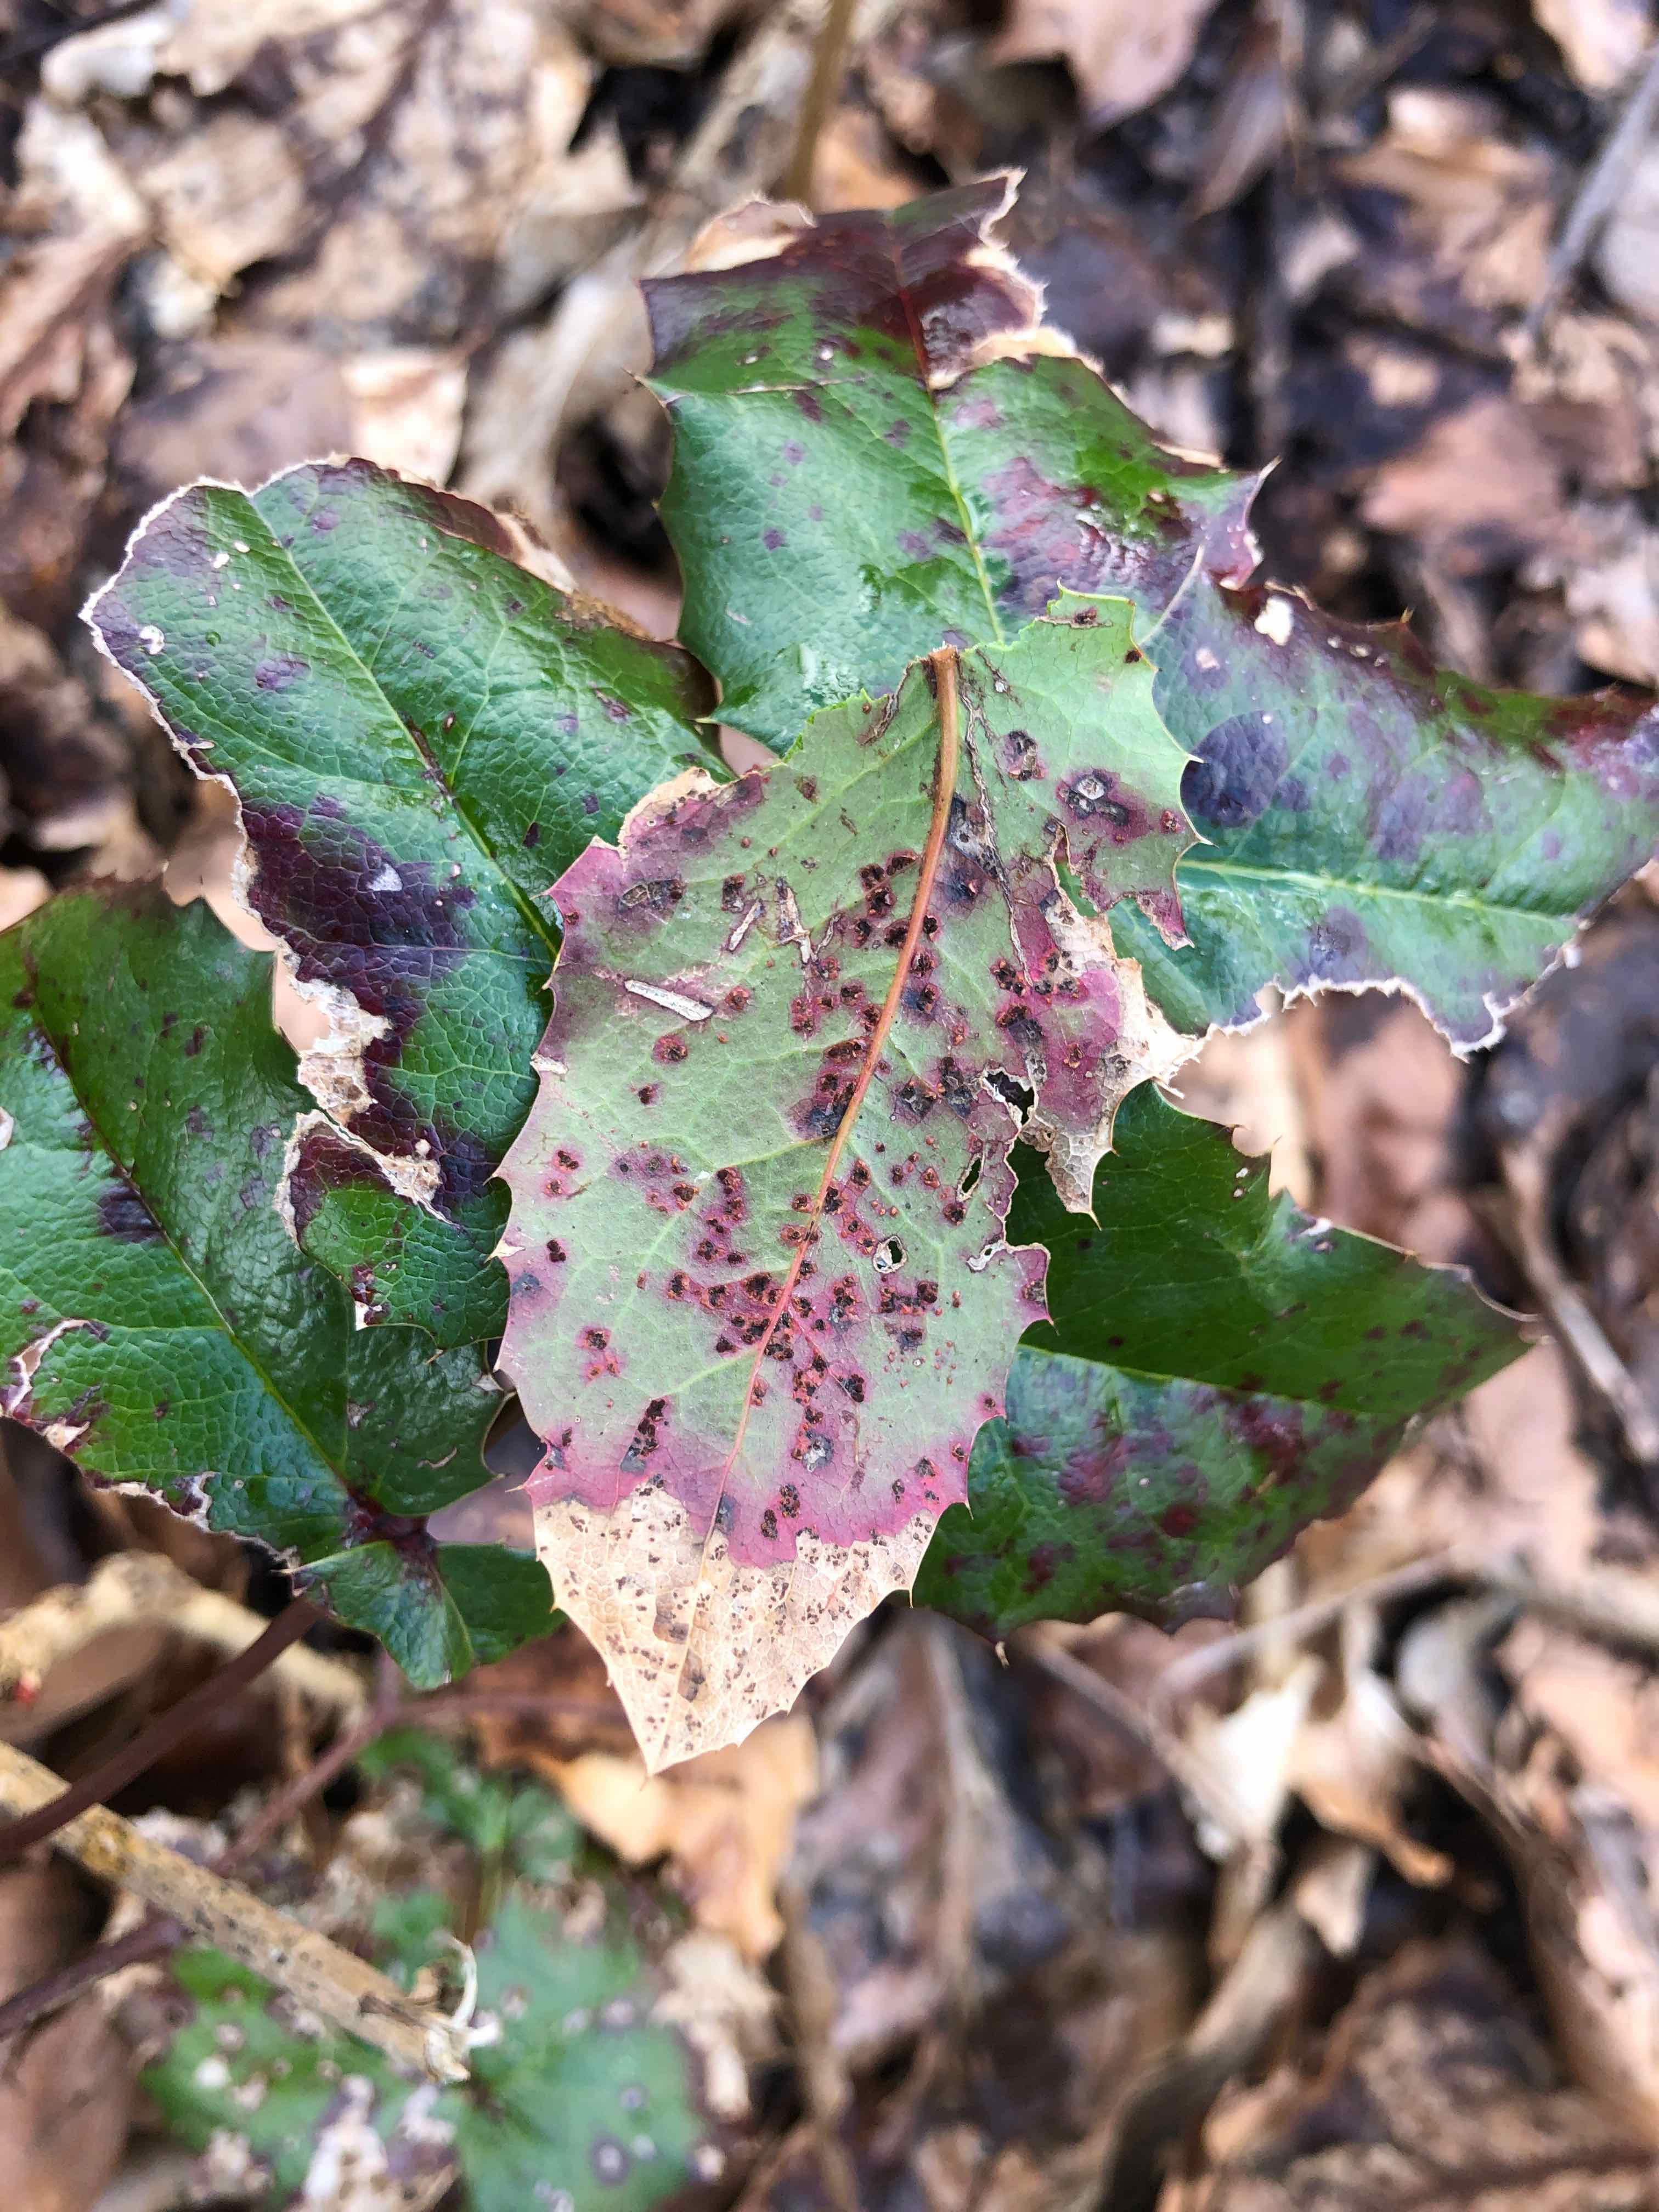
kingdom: Fungi
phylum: Basidiomycota
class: Pucciniomycetes
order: Pucciniales
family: Pucciniaceae
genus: Cumminsiella
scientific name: Cumminsiella mirabilissima
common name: mahonierust
